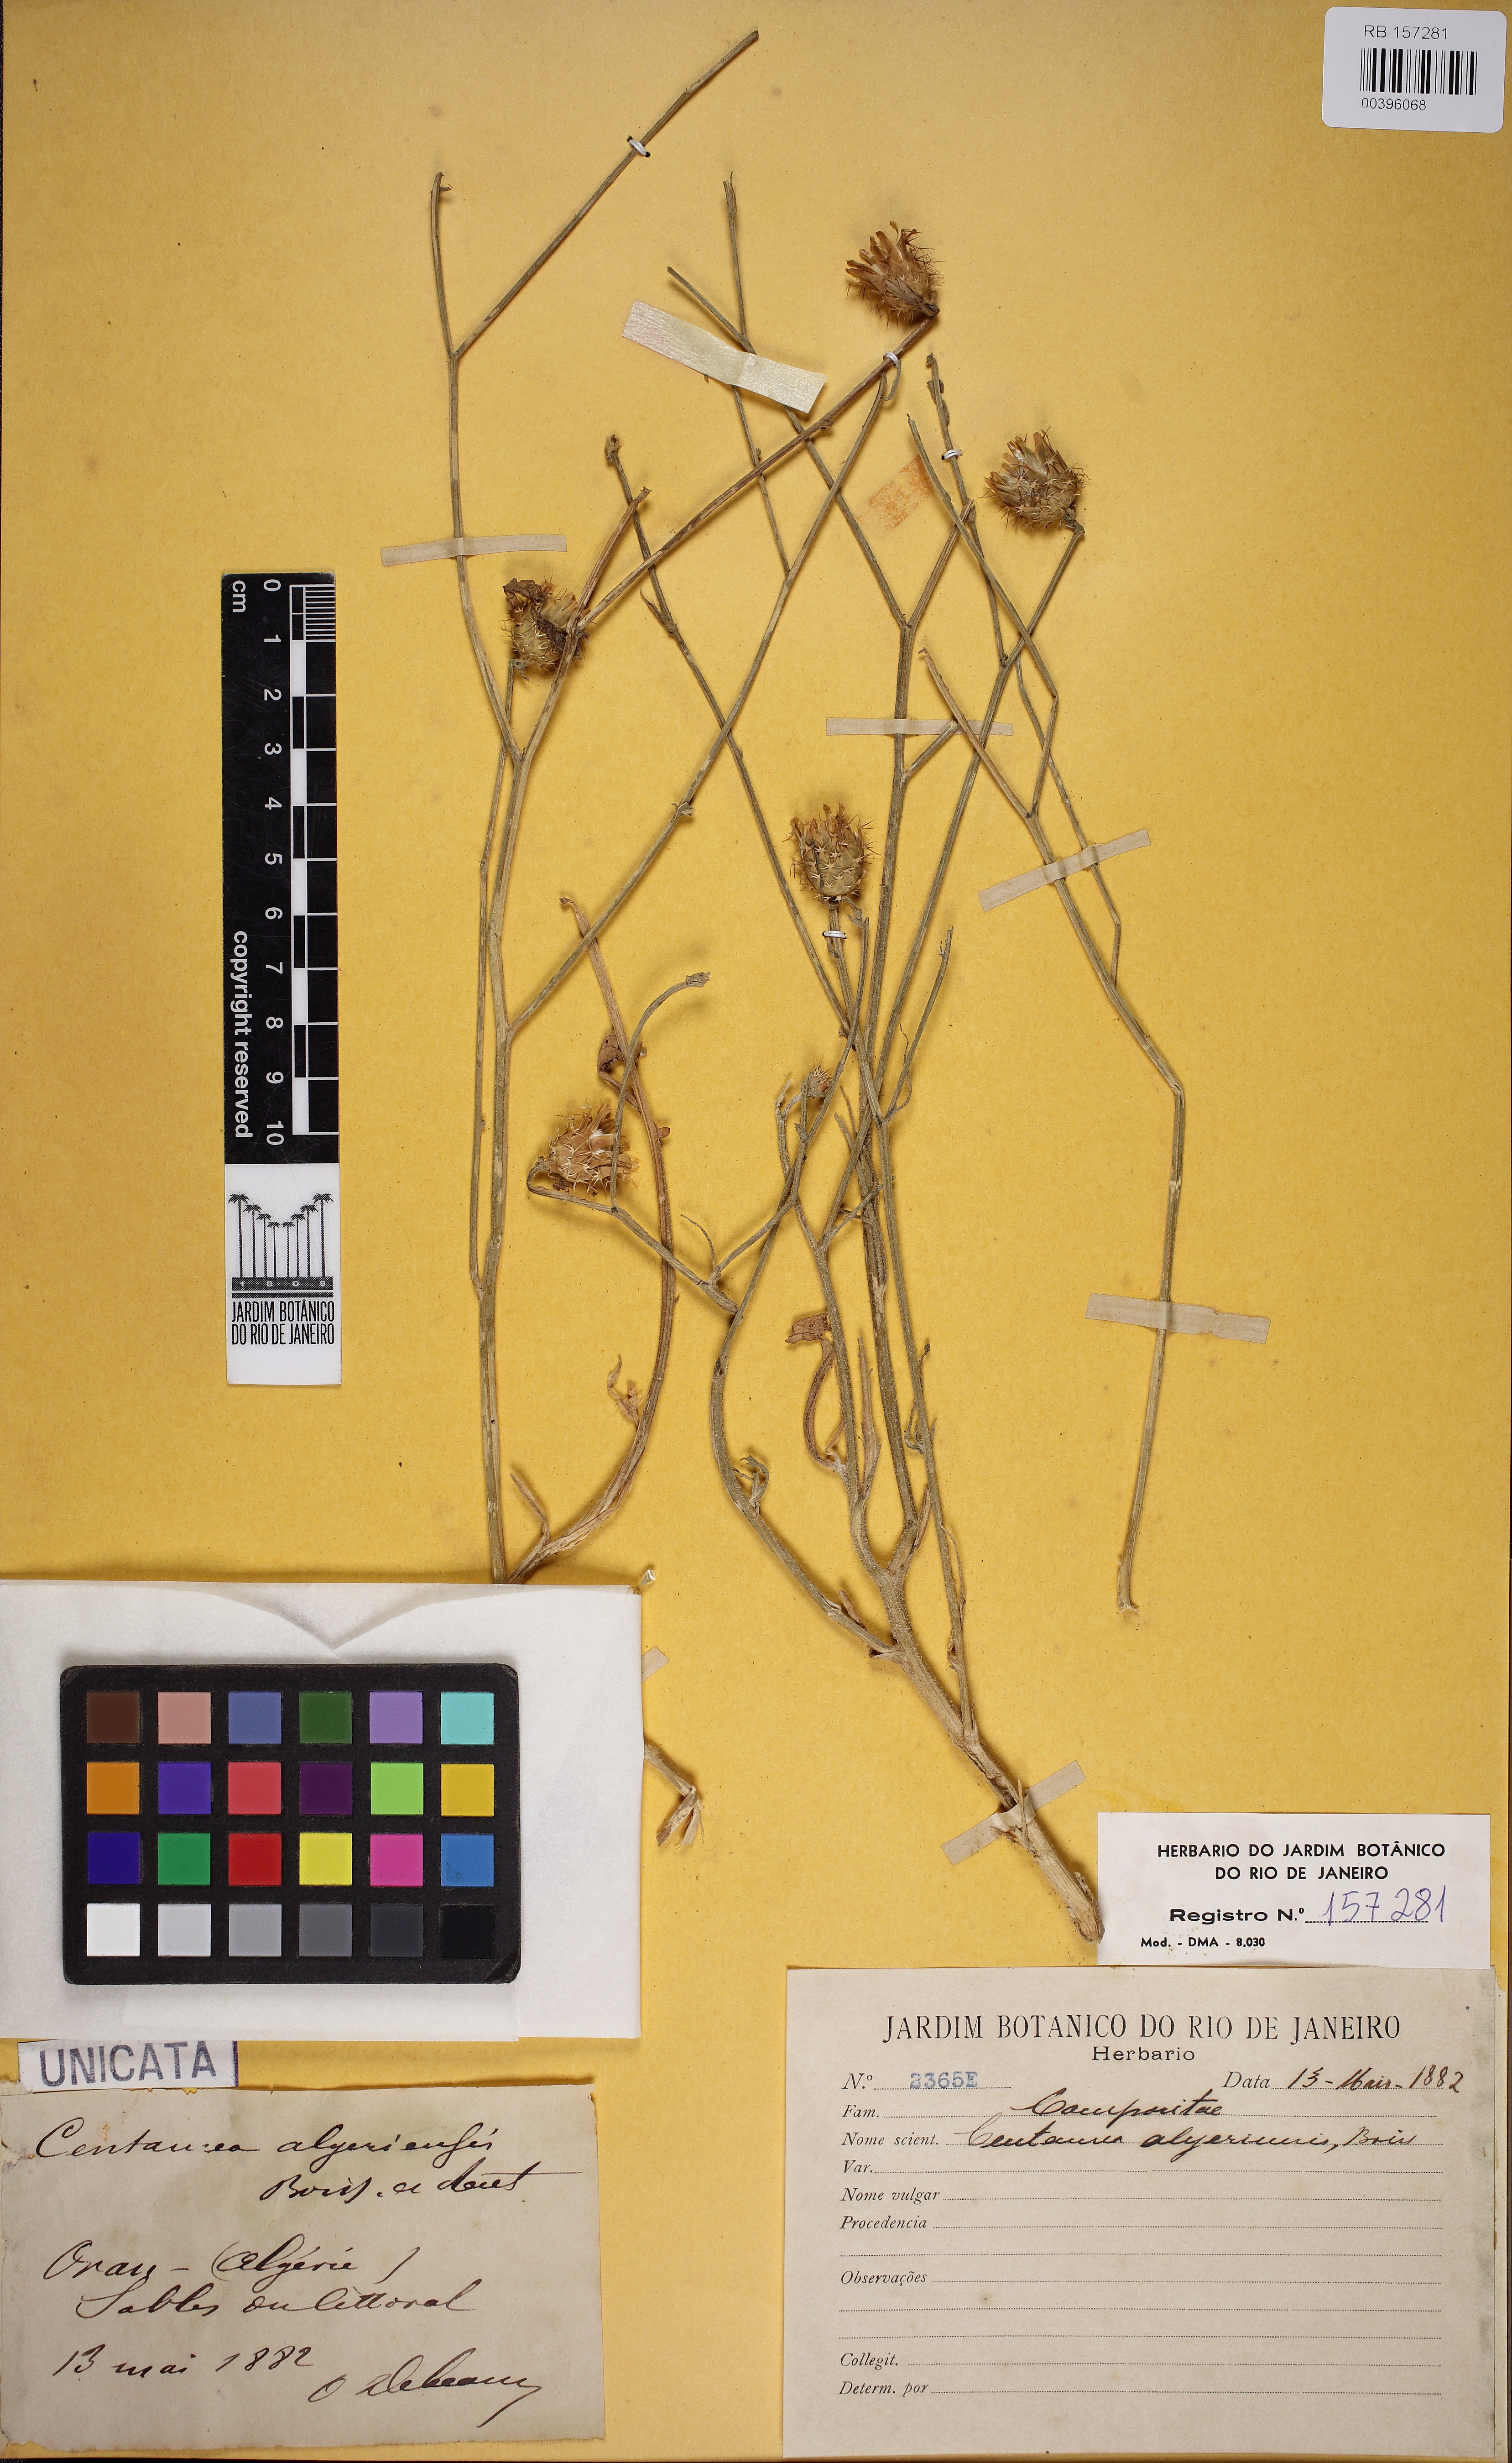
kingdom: Plantae
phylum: Tracheophyta
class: Magnoliopsida
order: Asterales
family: Asteraceae
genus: Centaurea
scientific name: Centaurea diluta
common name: Lesser star-thistle
